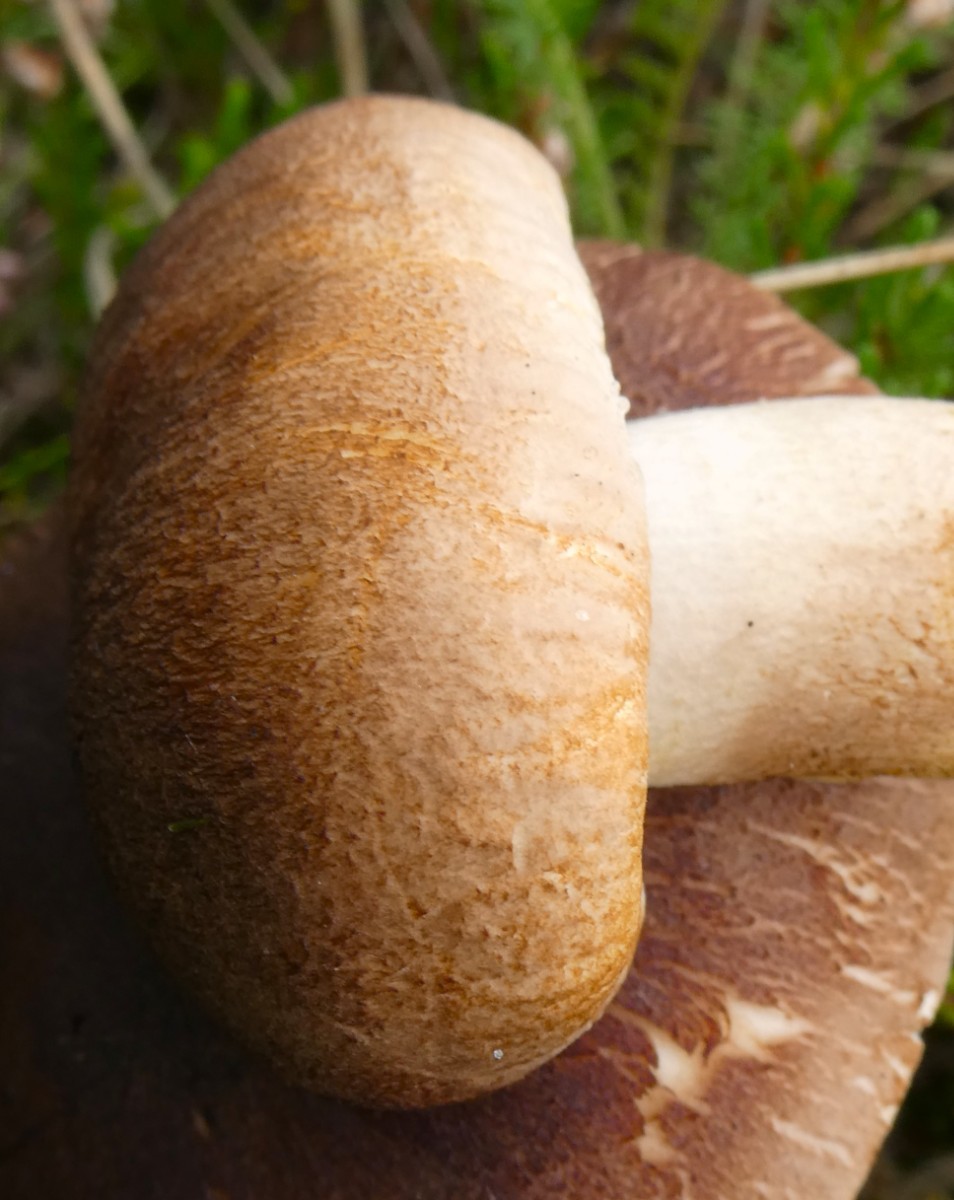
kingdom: Fungi
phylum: Basidiomycota
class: Agaricomycetes
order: Agaricales
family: Tricholomataceae
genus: Tricholoma
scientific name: Tricholoma imbricatum
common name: skællet ridderhat
